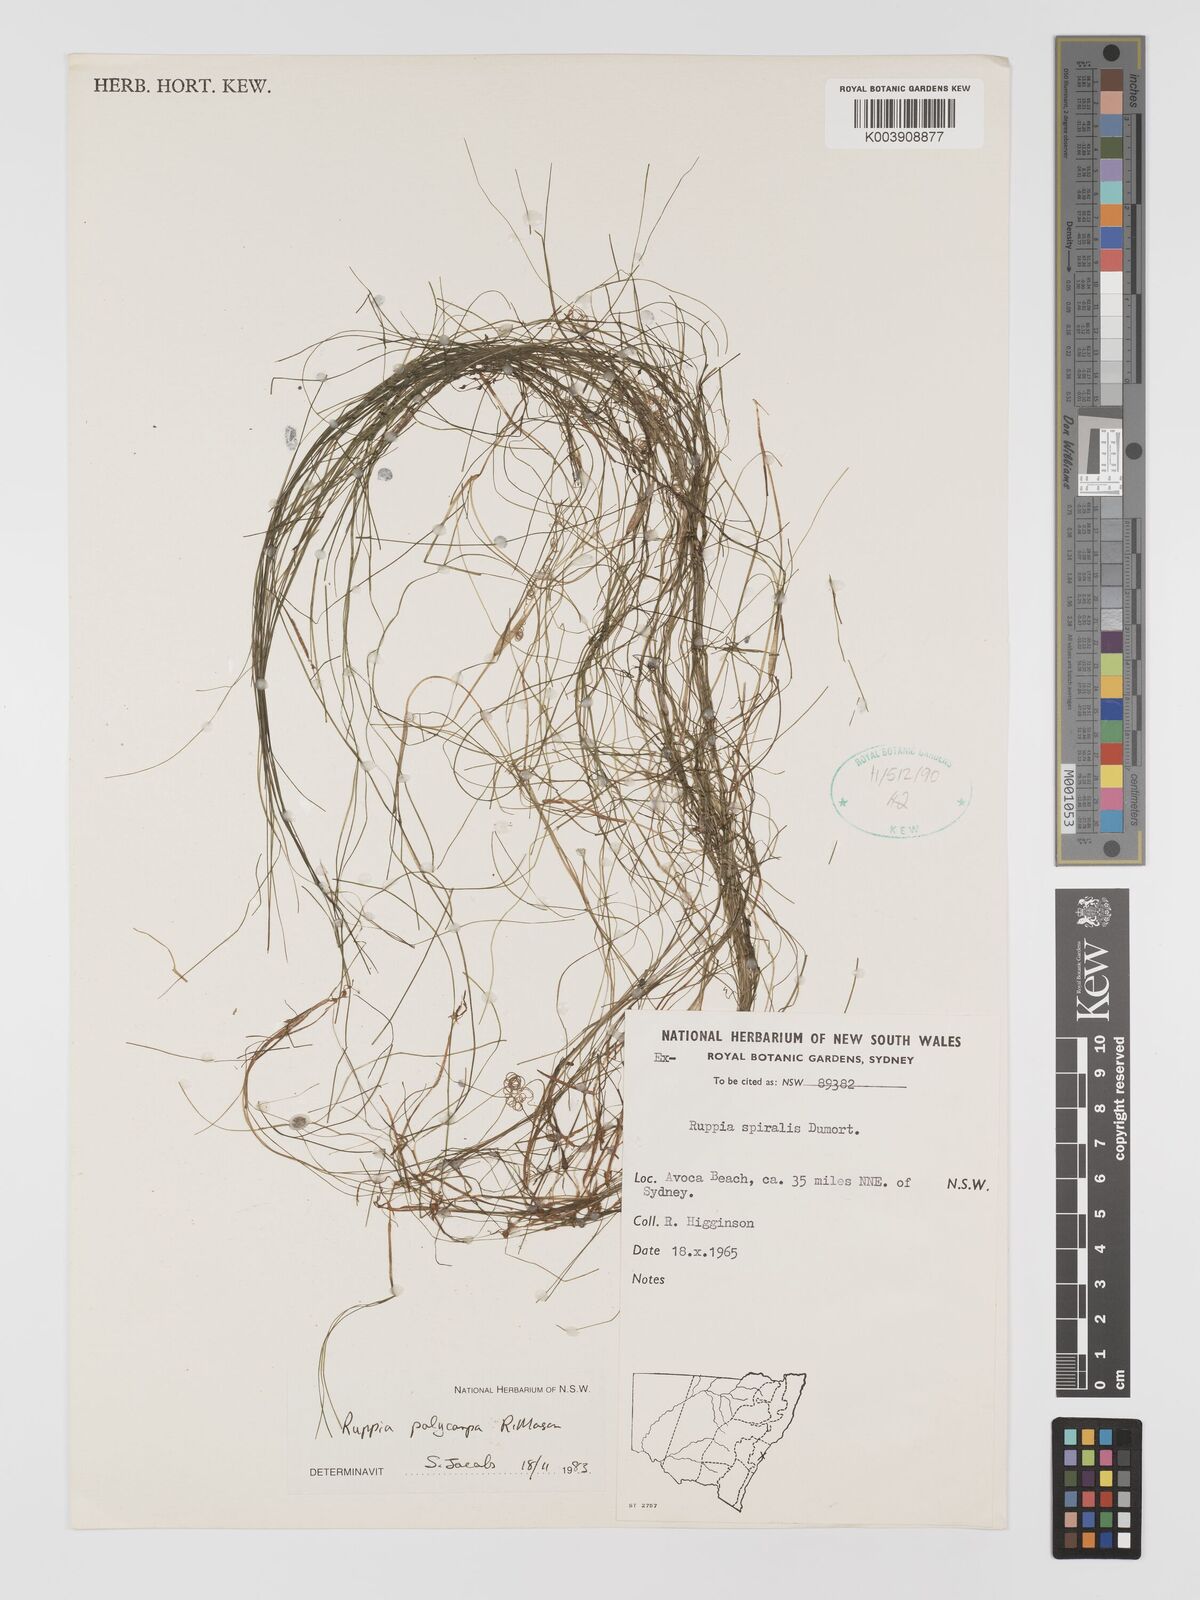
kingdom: Plantae
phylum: Tracheophyta
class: Liliopsida
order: Alismatales
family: Ruppiaceae
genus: Ruppia
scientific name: Ruppia polycarpa
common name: Species code: rp
